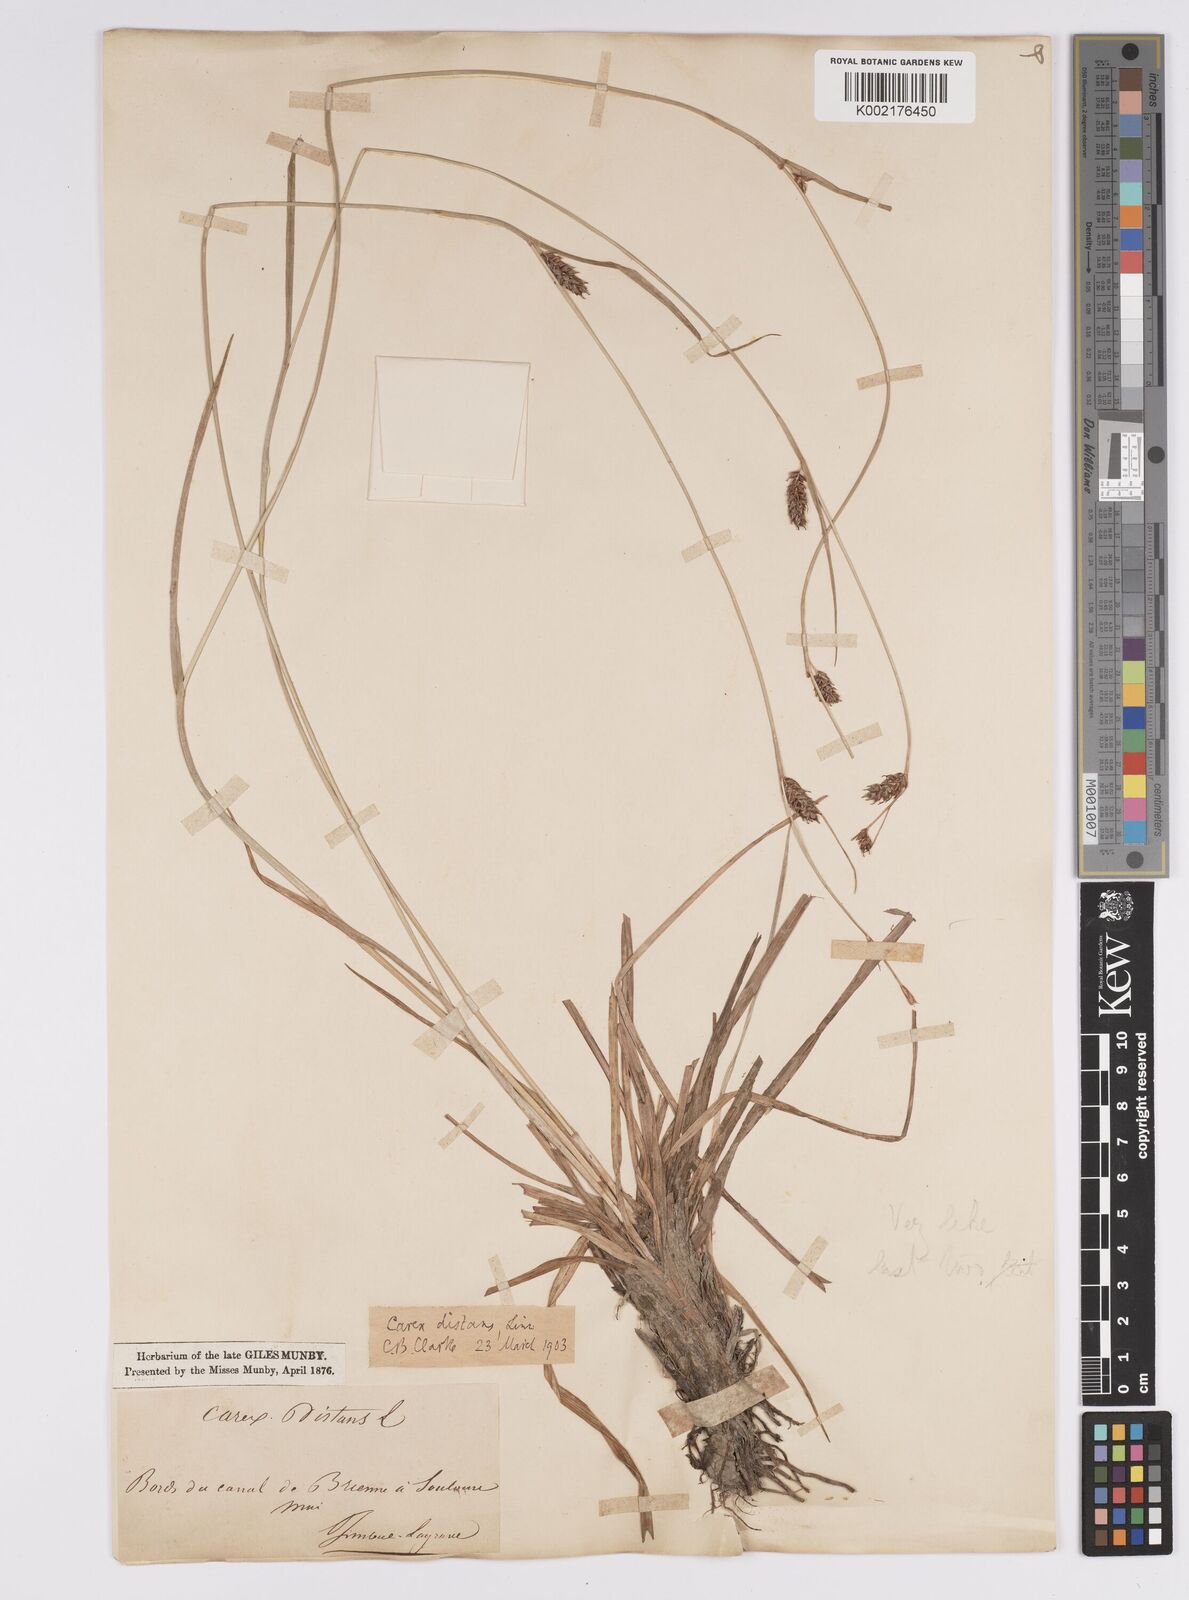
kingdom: Plantae
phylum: Tracheophyta
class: Liliopsida
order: Poales
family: Cyperaceae
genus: Carex
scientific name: Carex distans
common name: Distant sedge
